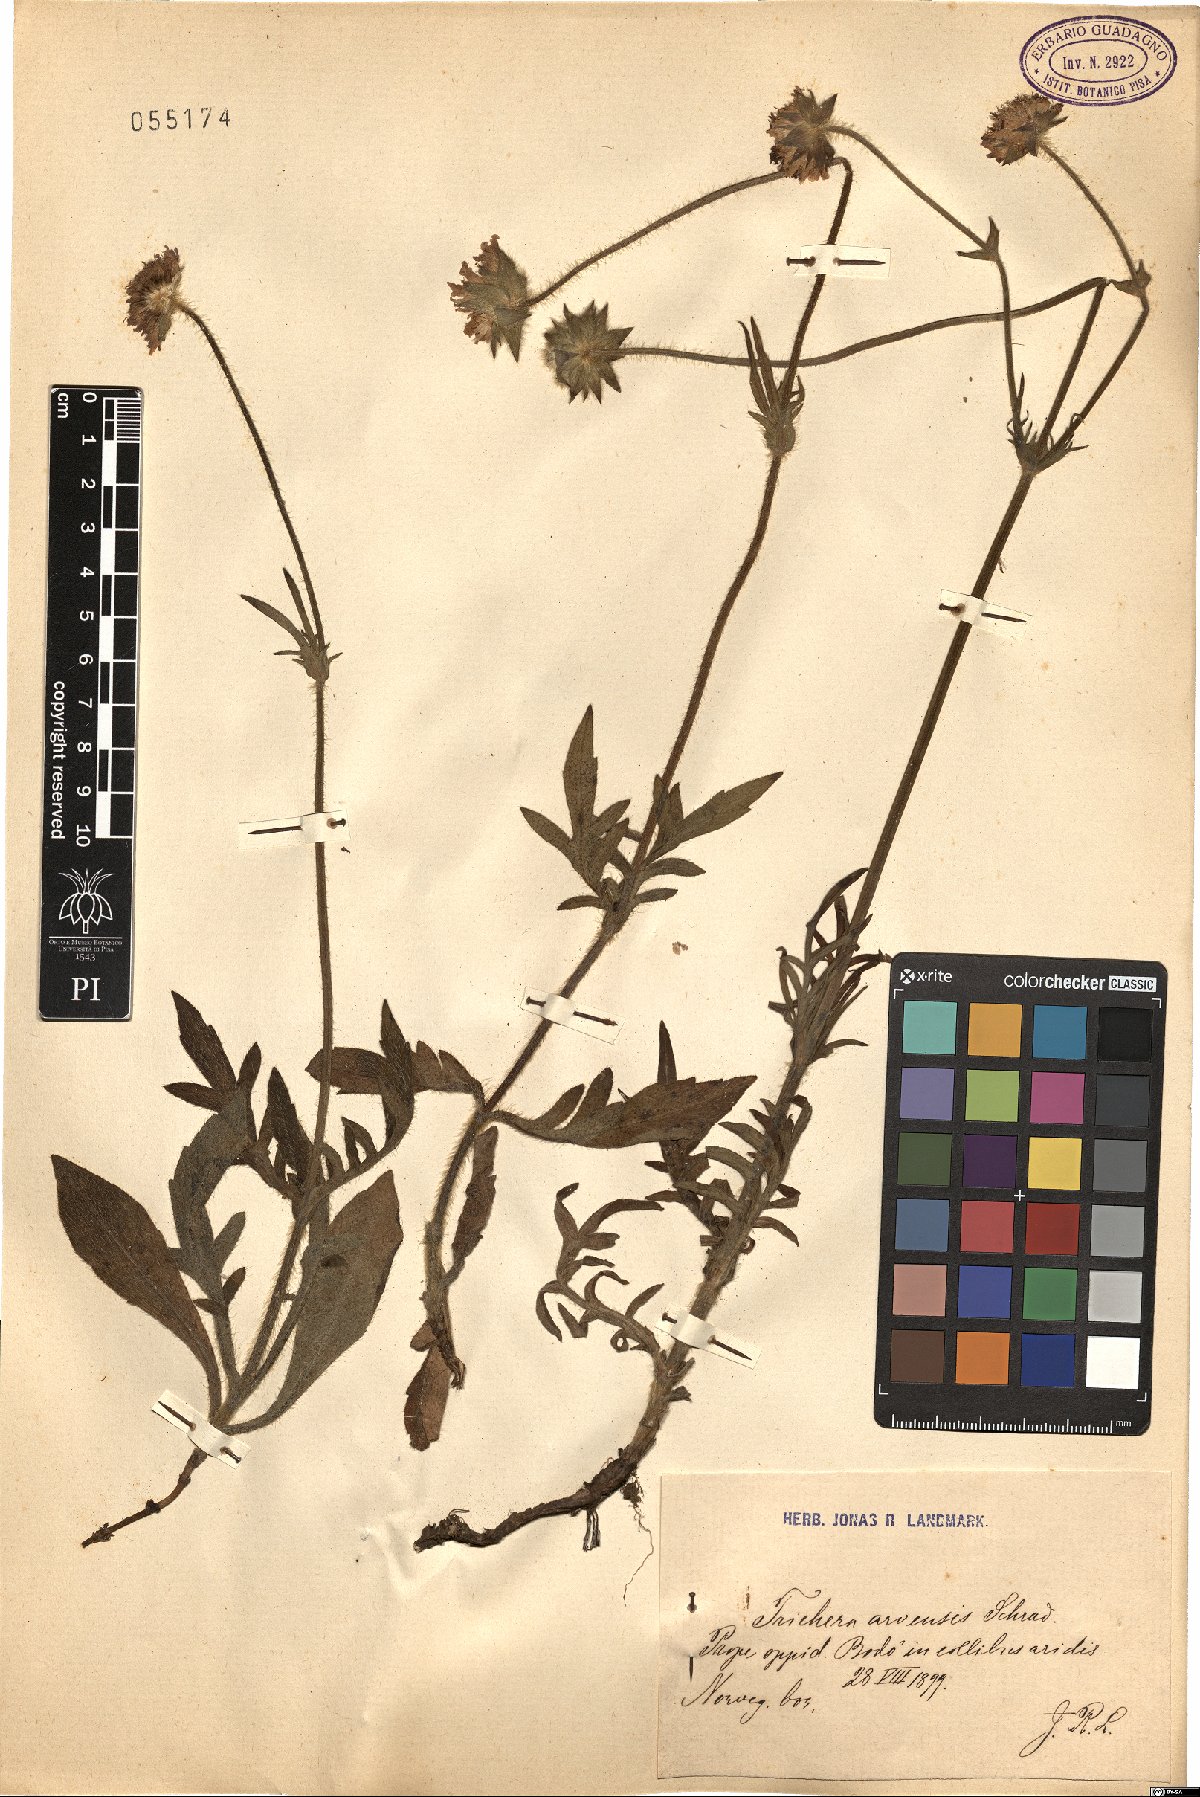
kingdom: Plantae
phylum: Tracheophyta
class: Magnoliopsida
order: Dipsacales
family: Caprifoliaceae
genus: Knautia
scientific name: Knautia arvensis
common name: Field scabiosa
